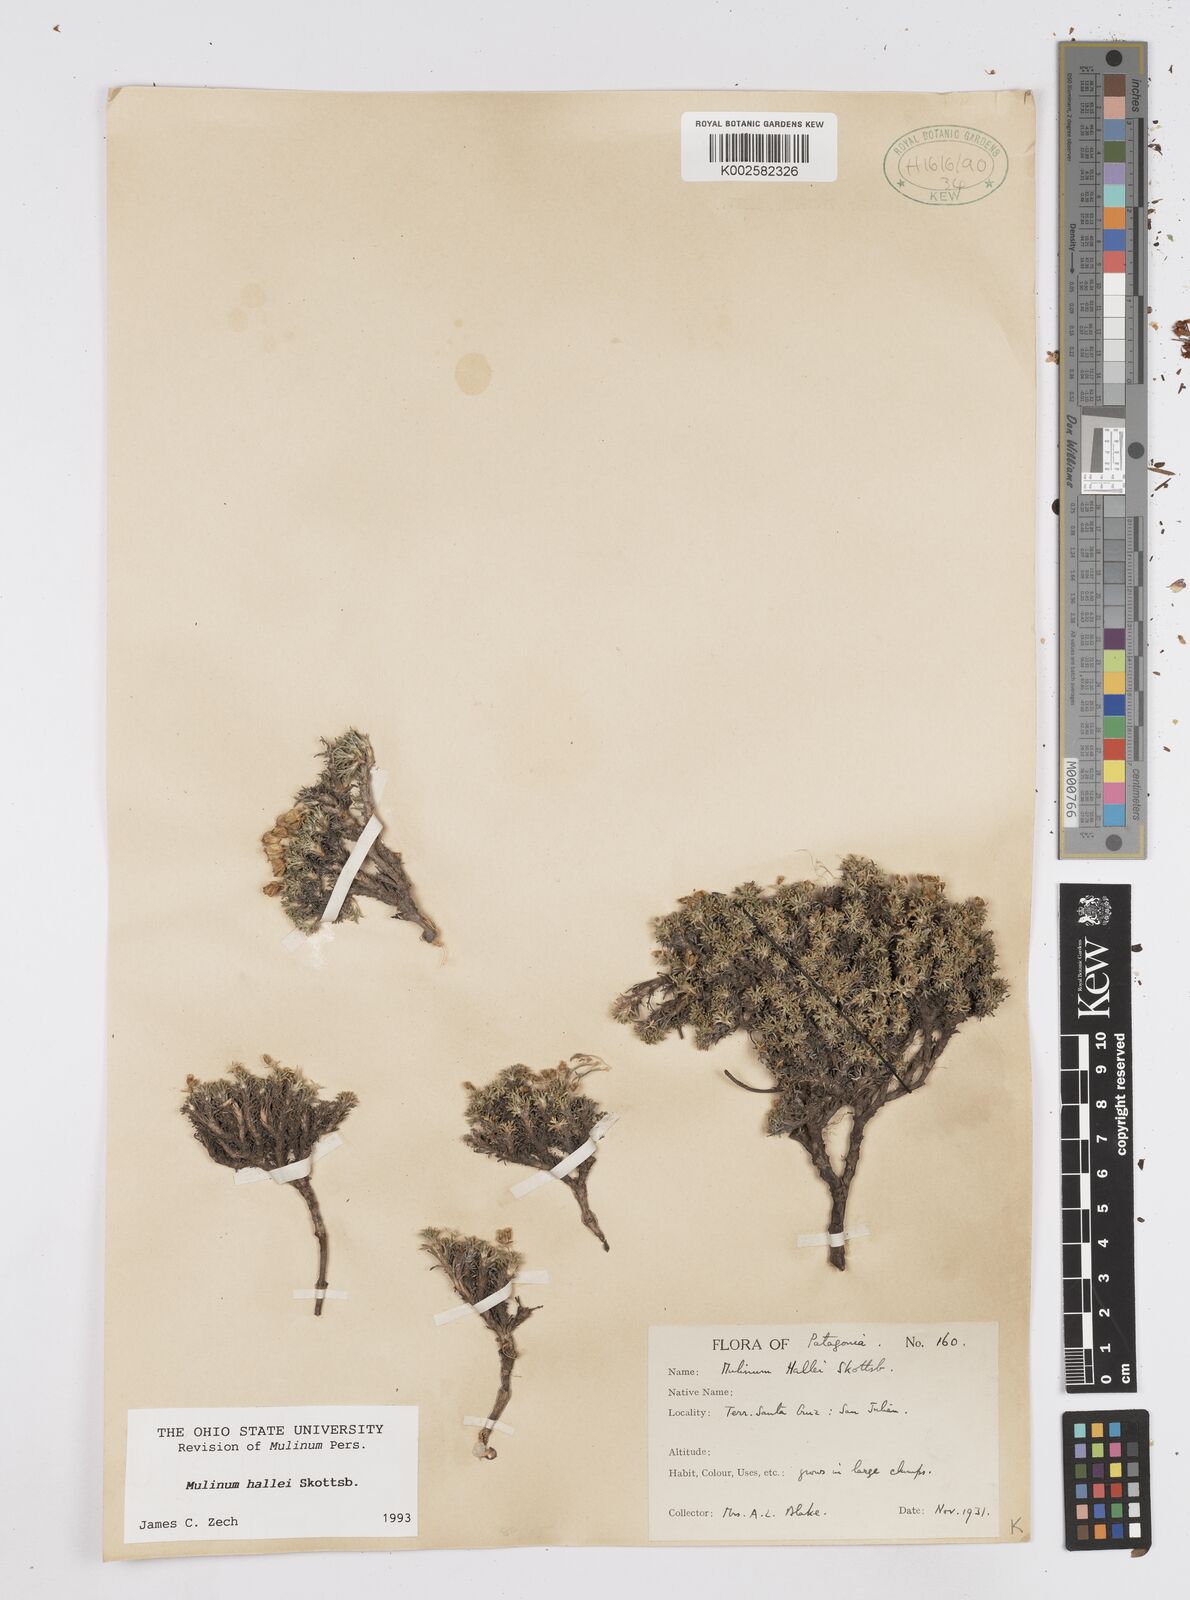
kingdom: Plantae
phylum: Tracheophyta
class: Magnoliopsida
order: Apiales
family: Apiaceae
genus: Azorella
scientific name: Azorella hallei
